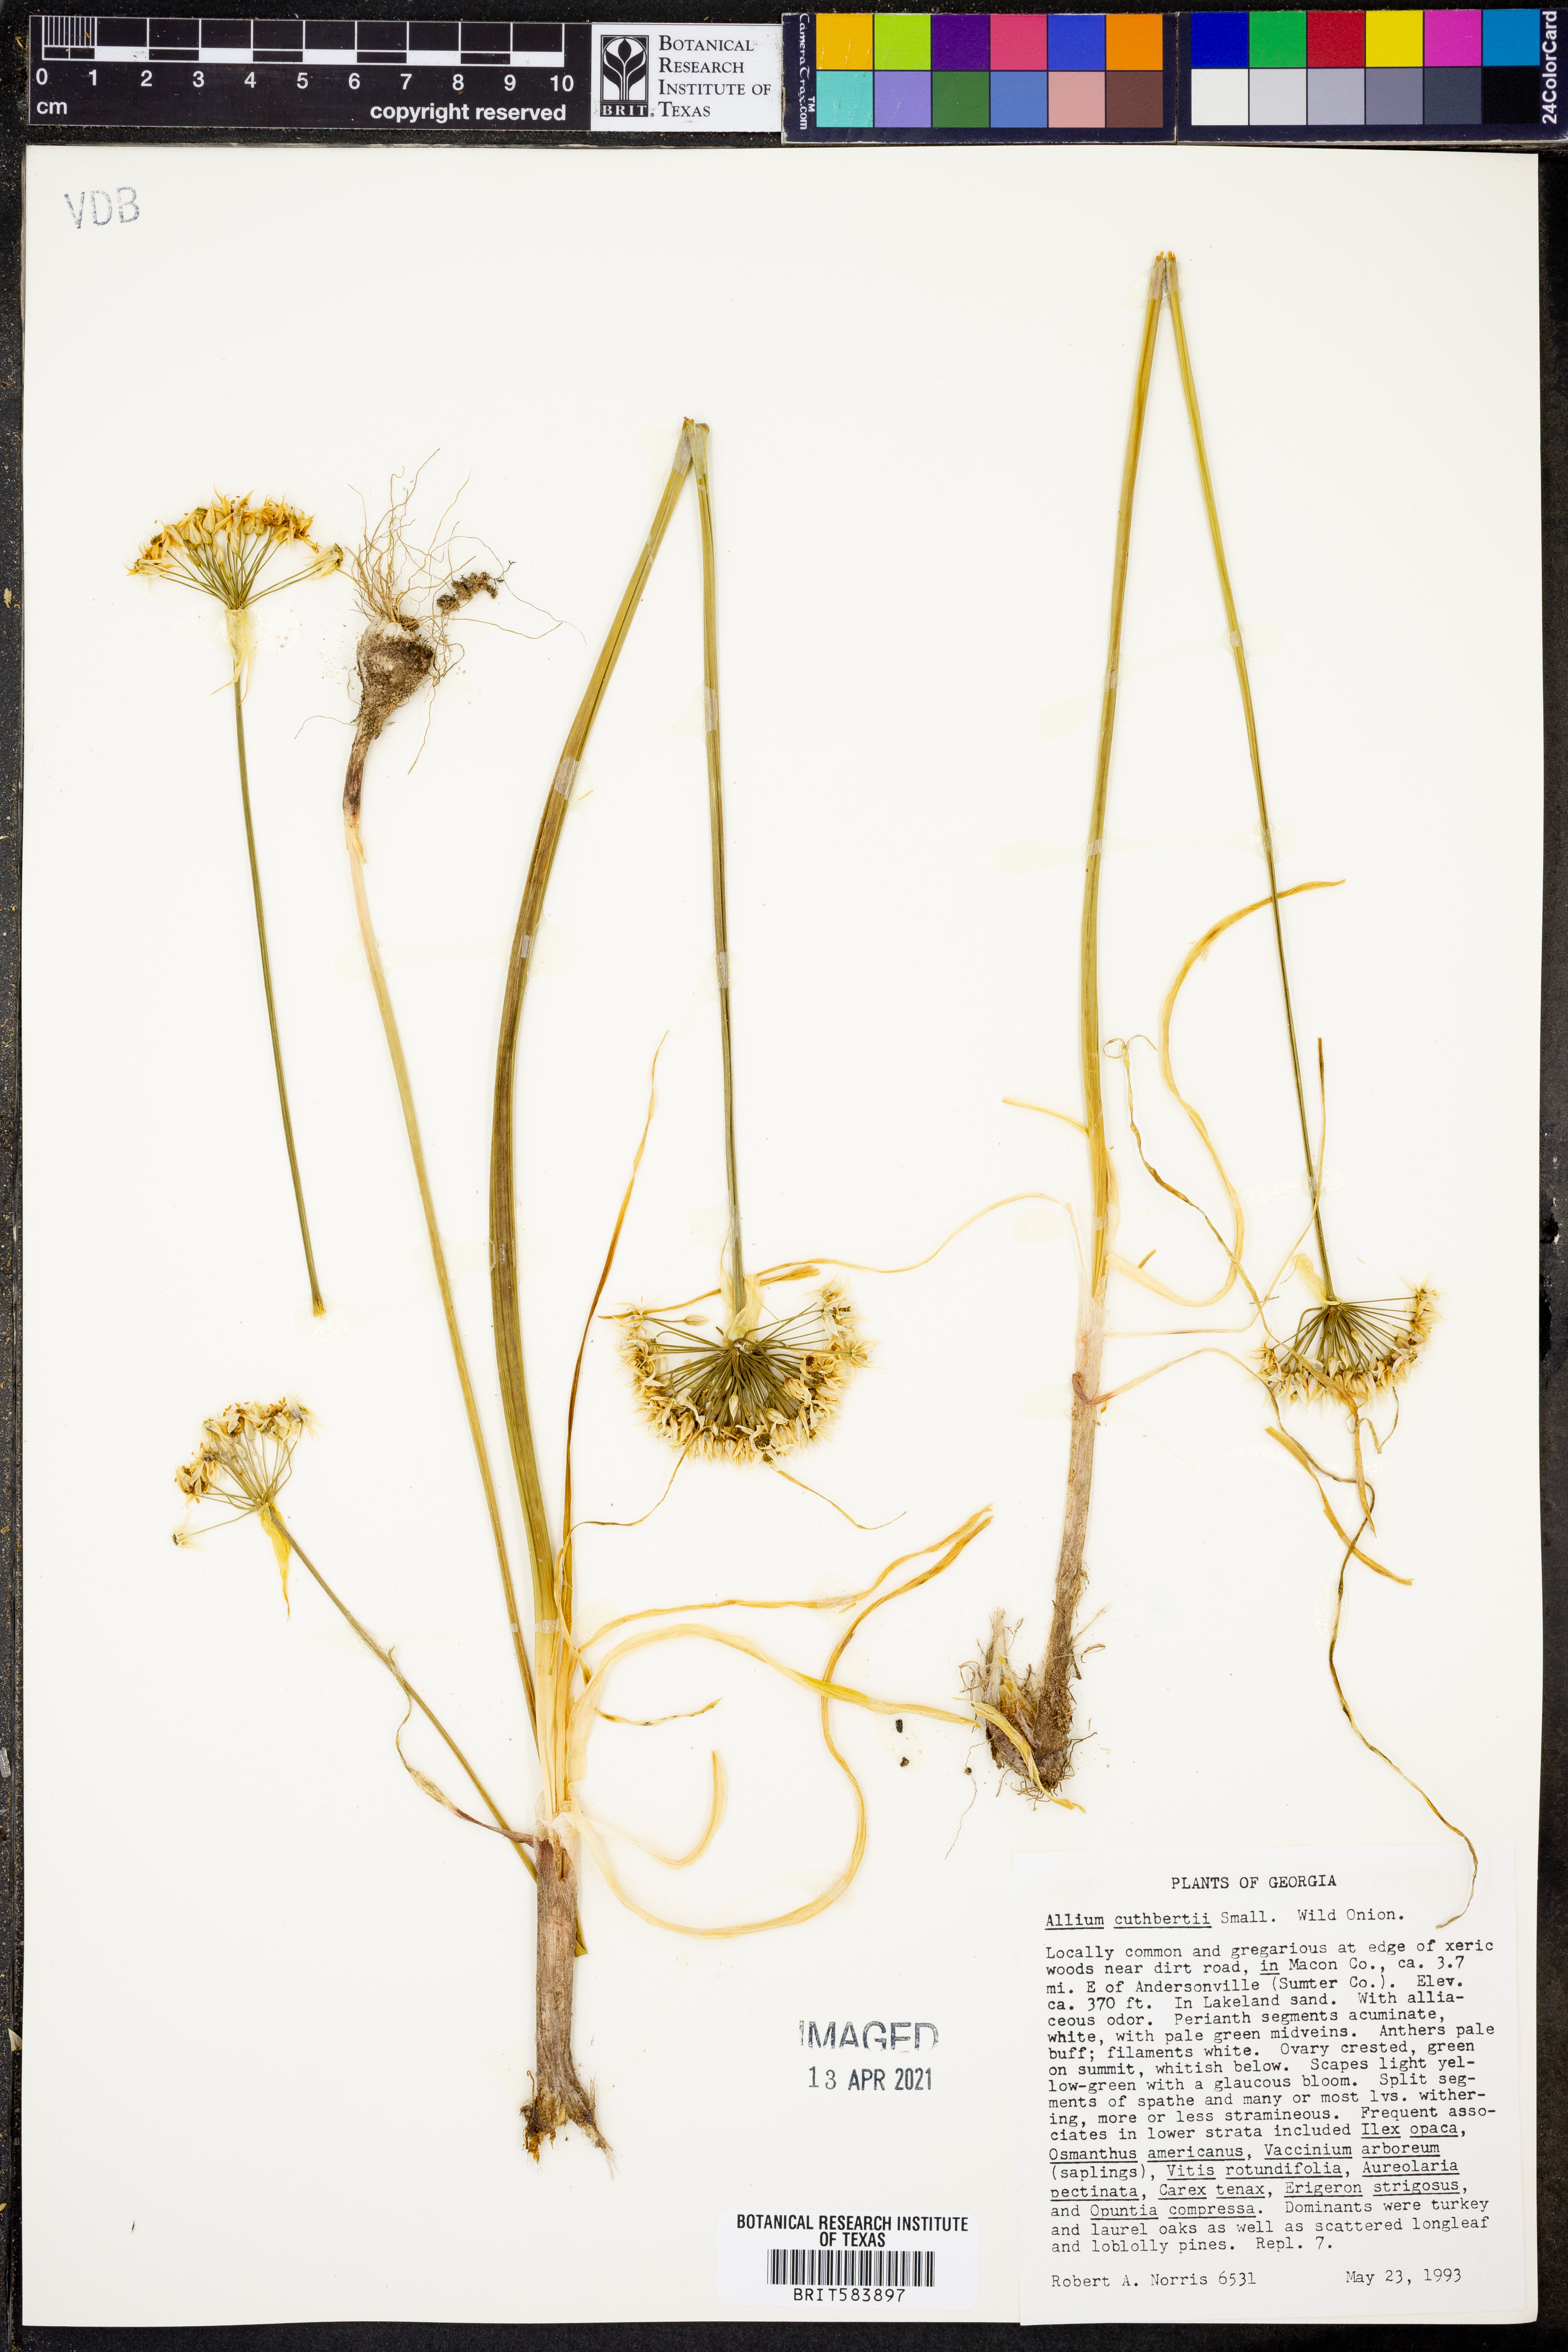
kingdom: Plantae
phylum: Tracheophyta
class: Liliopsida
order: Asparagales
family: Amaryllidaceae
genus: Allium
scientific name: Allium cuthbertii
